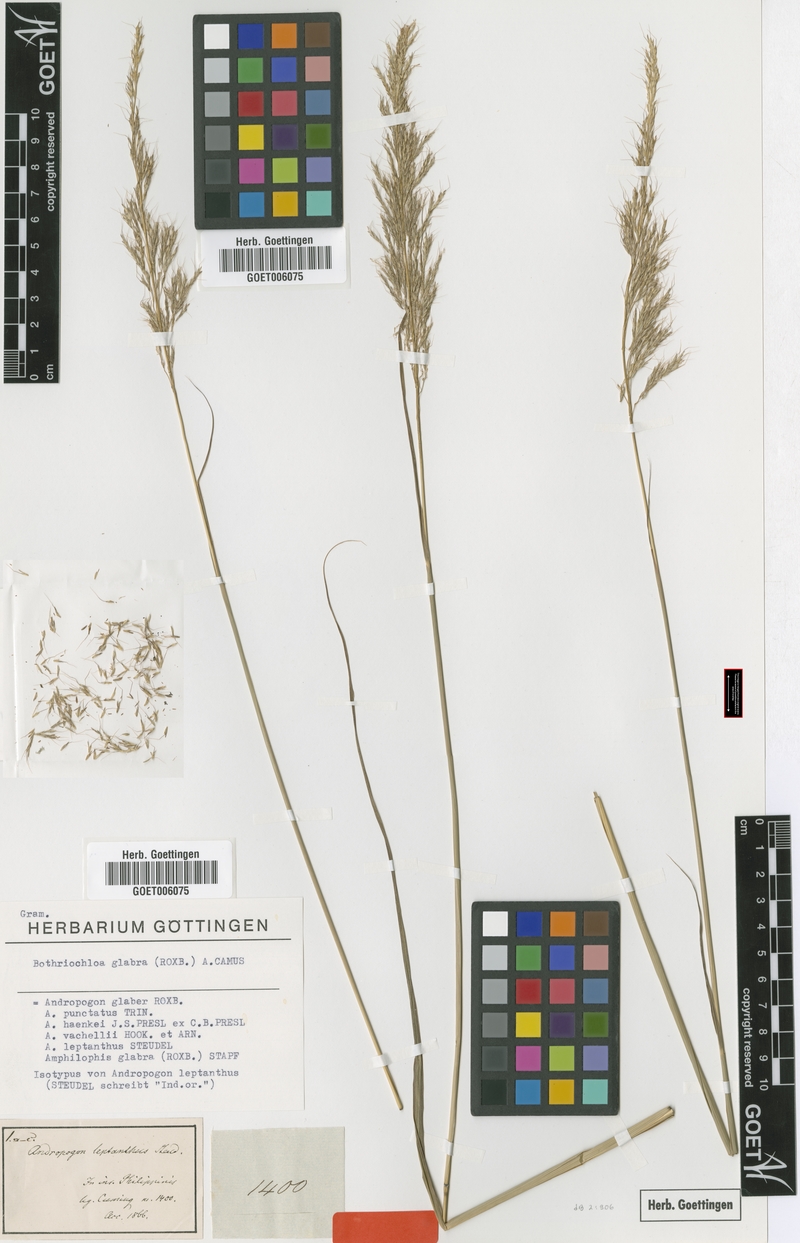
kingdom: Plantae
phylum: Tracheophyta
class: Liliopsida
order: Poales
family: Poaceae
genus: Bothriochloa
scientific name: Bothriochloa glabra
